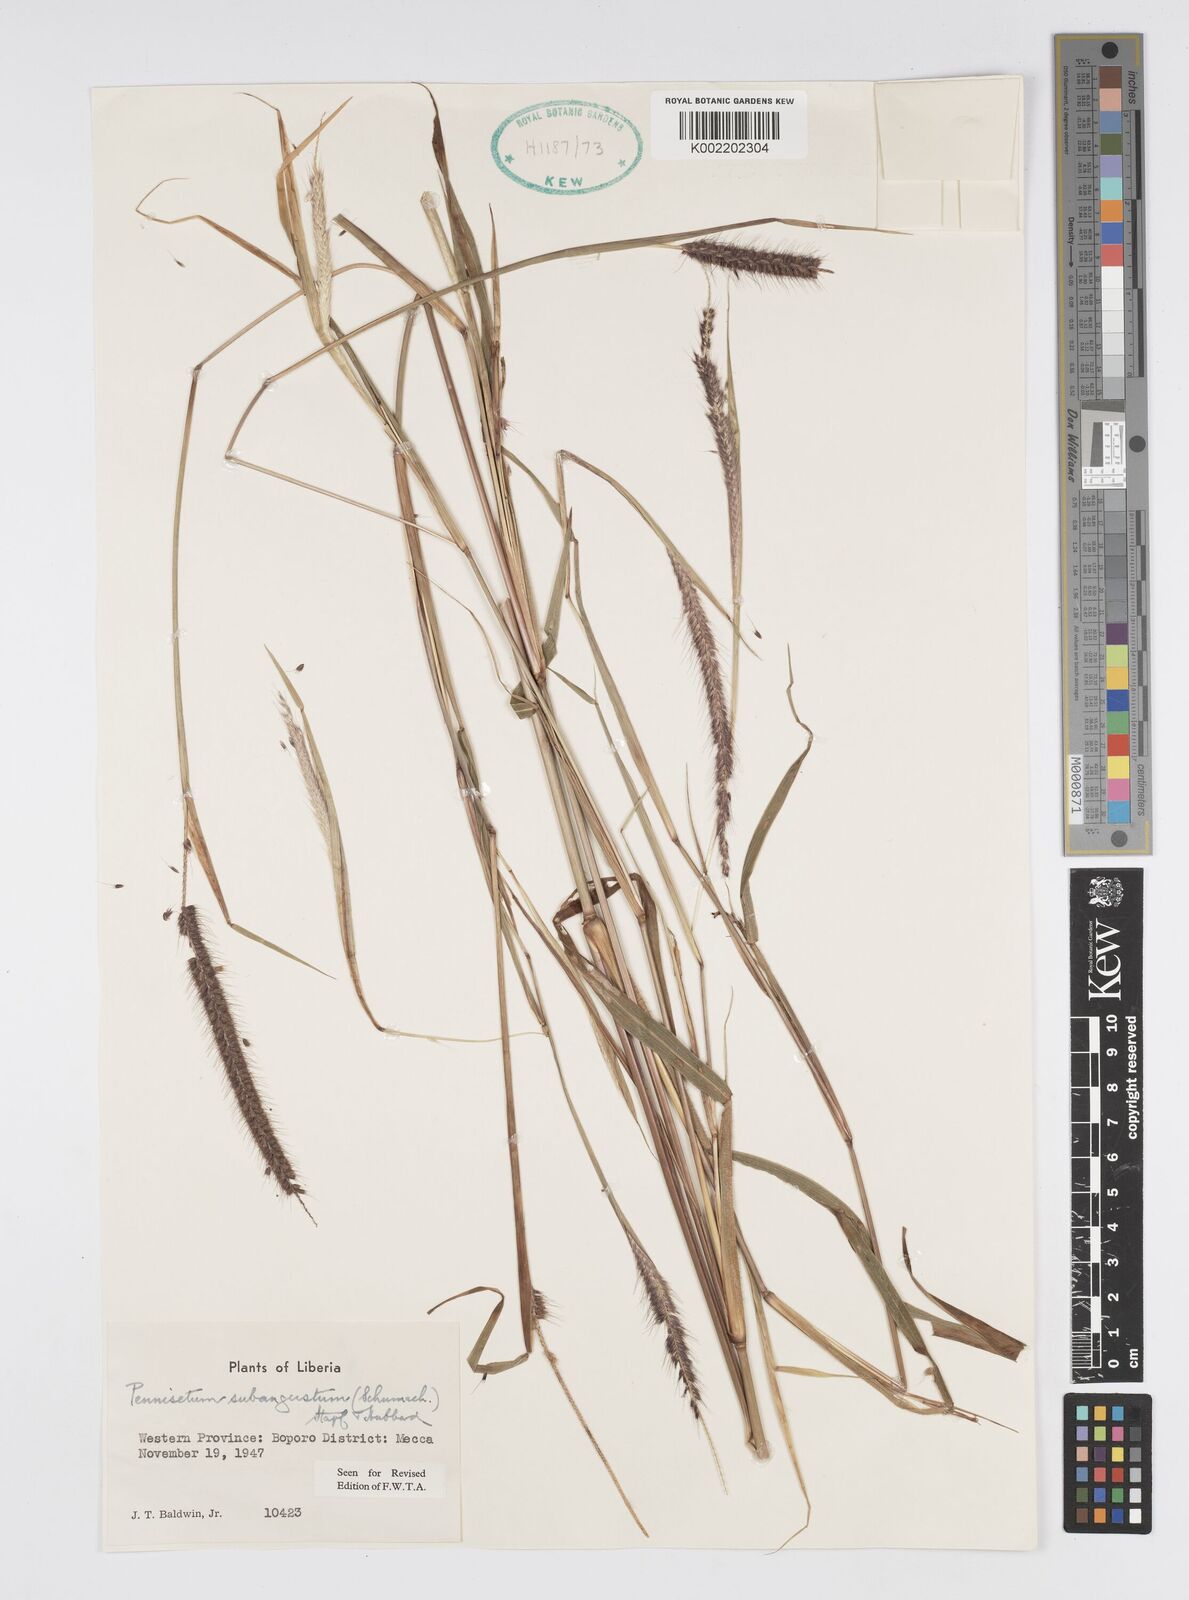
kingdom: Plantae
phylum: Tracheophyta
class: Liliopsida
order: Poales
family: Poaceae
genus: Setaria
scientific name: Setaria parviflora
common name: Knotroot bristle-grass
